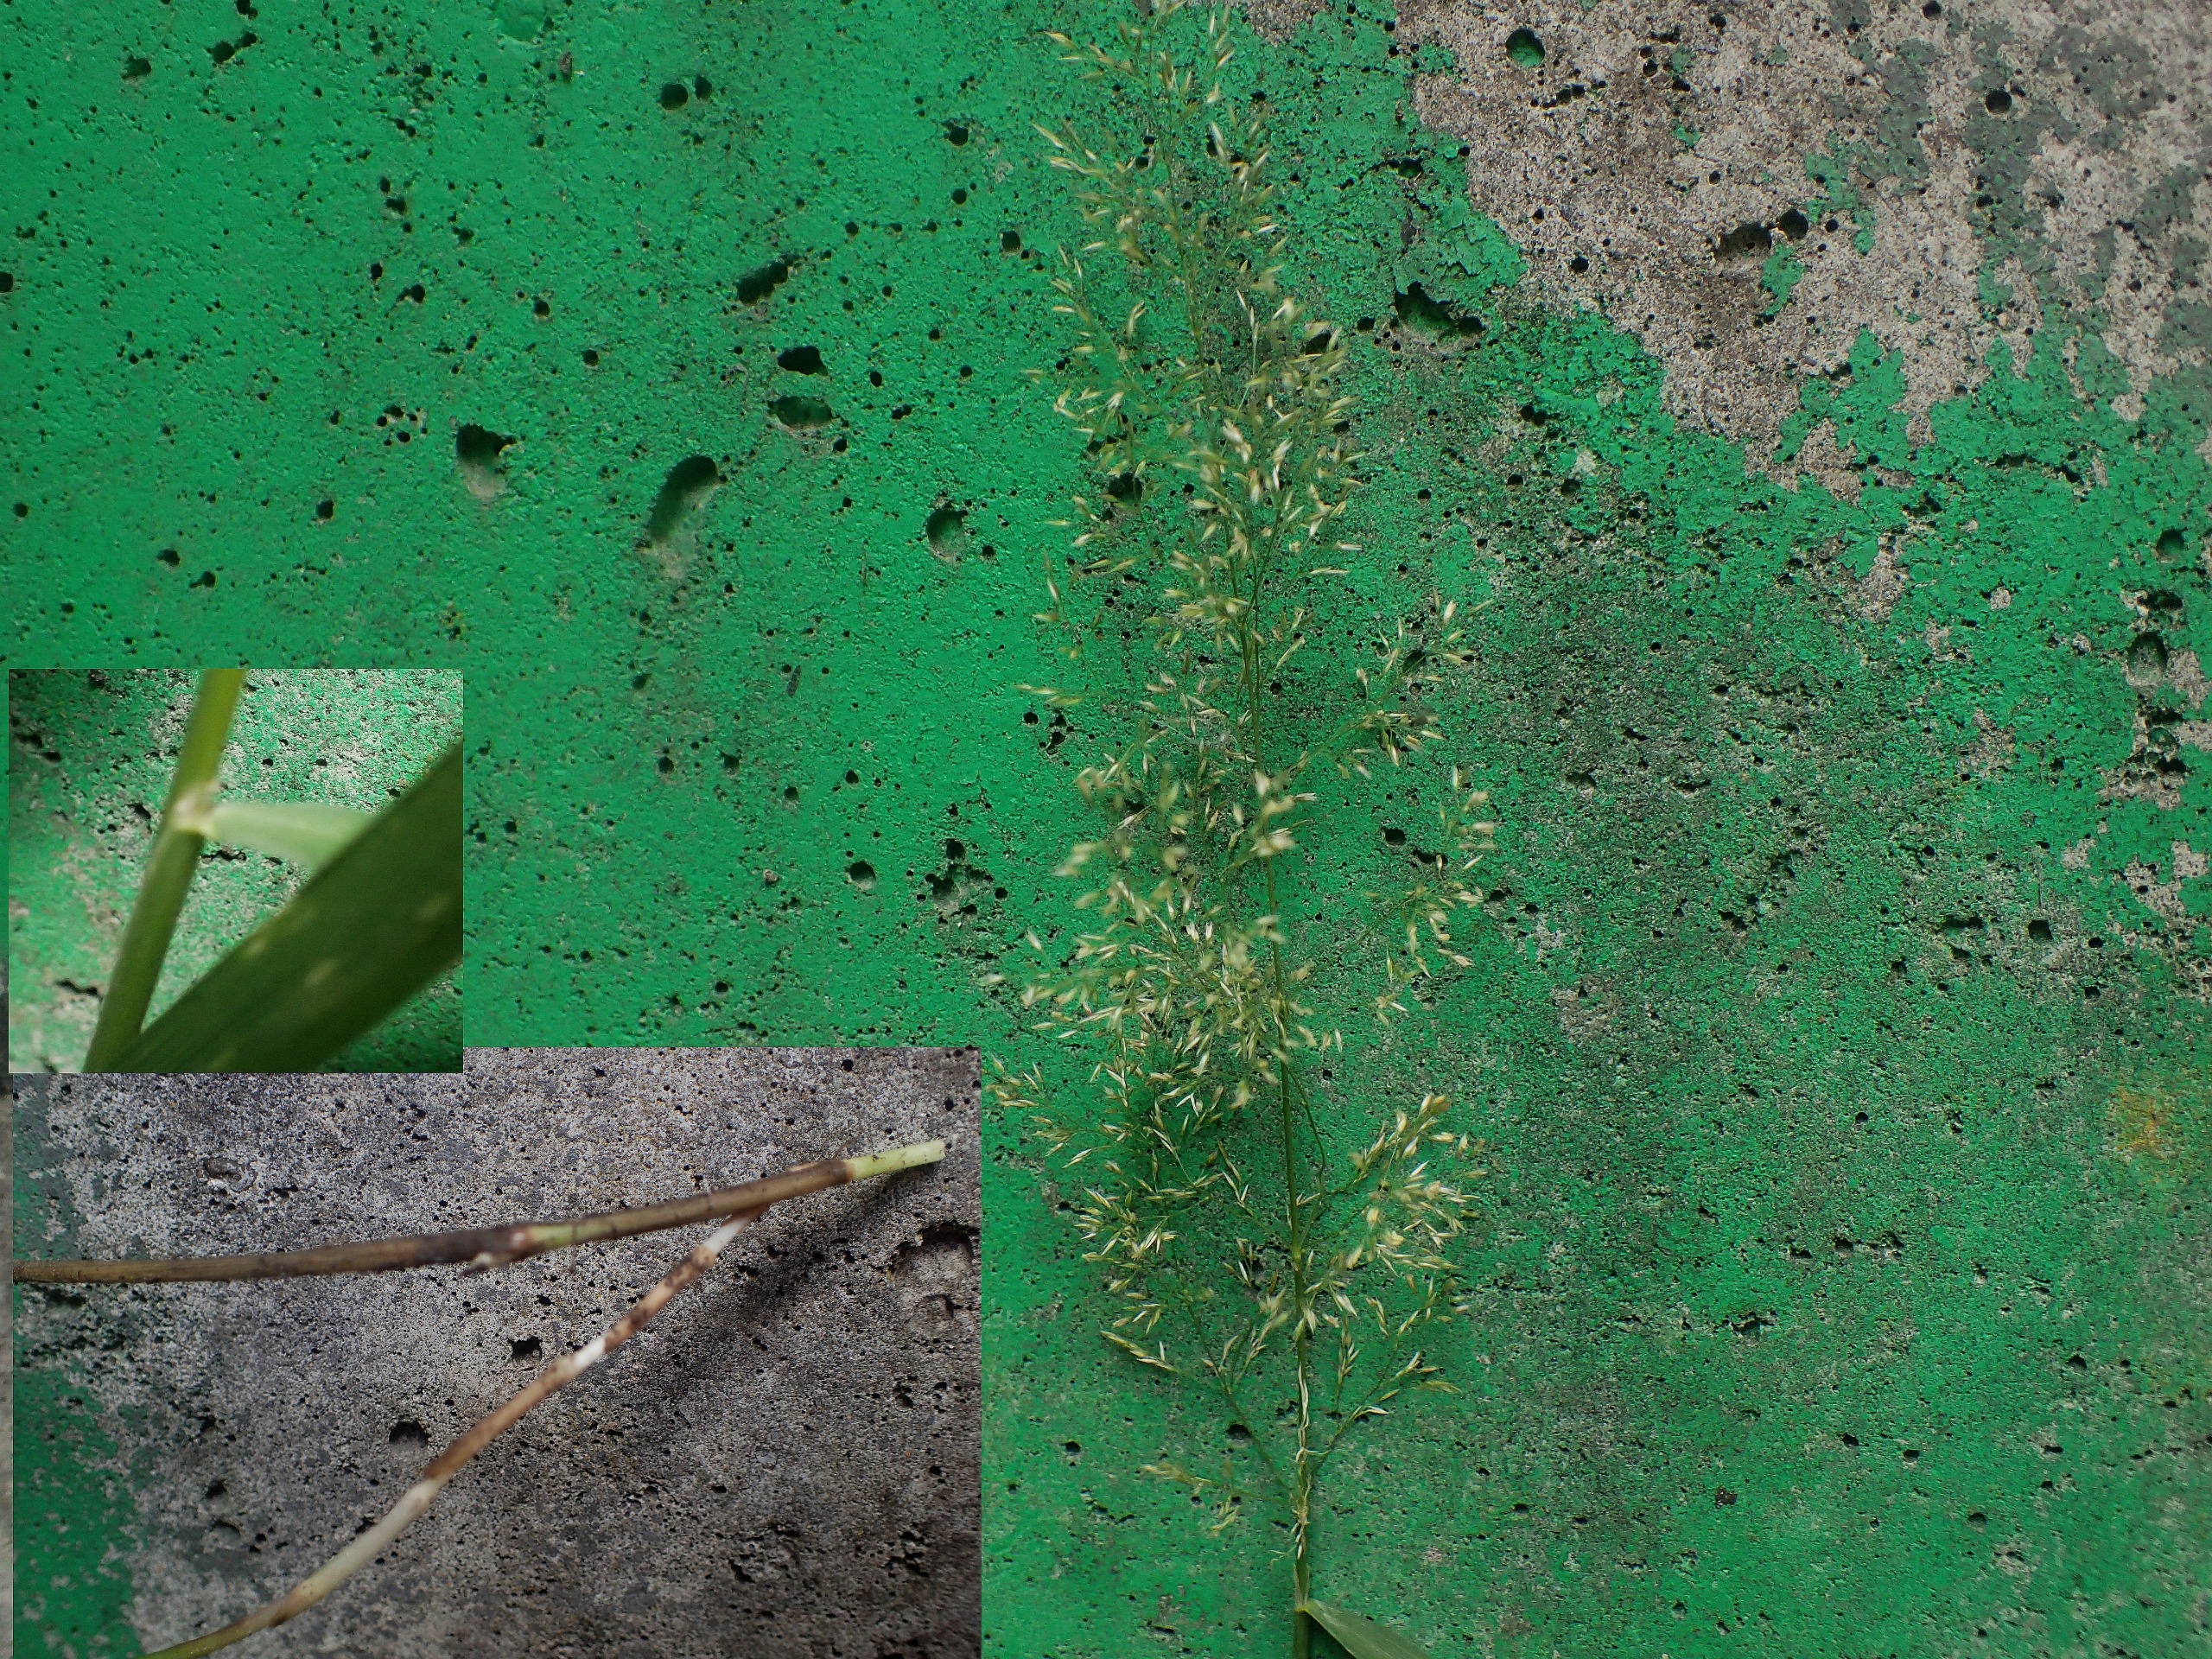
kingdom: Plantae
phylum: Tracheophyta
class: Liliopsida
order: Poales
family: Poaceae
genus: Agrostis
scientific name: Agrostis capillaris
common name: Almindelig hvene
